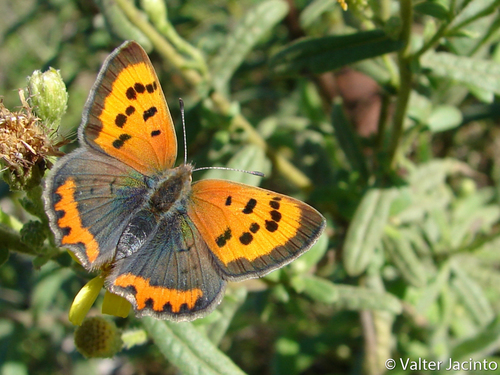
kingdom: Animalia
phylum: Arthropoda
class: Insecta
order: Lepidoptera
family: Lycaenidae
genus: Lycaena
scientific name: Lycaena phlaeas
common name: Small copper
